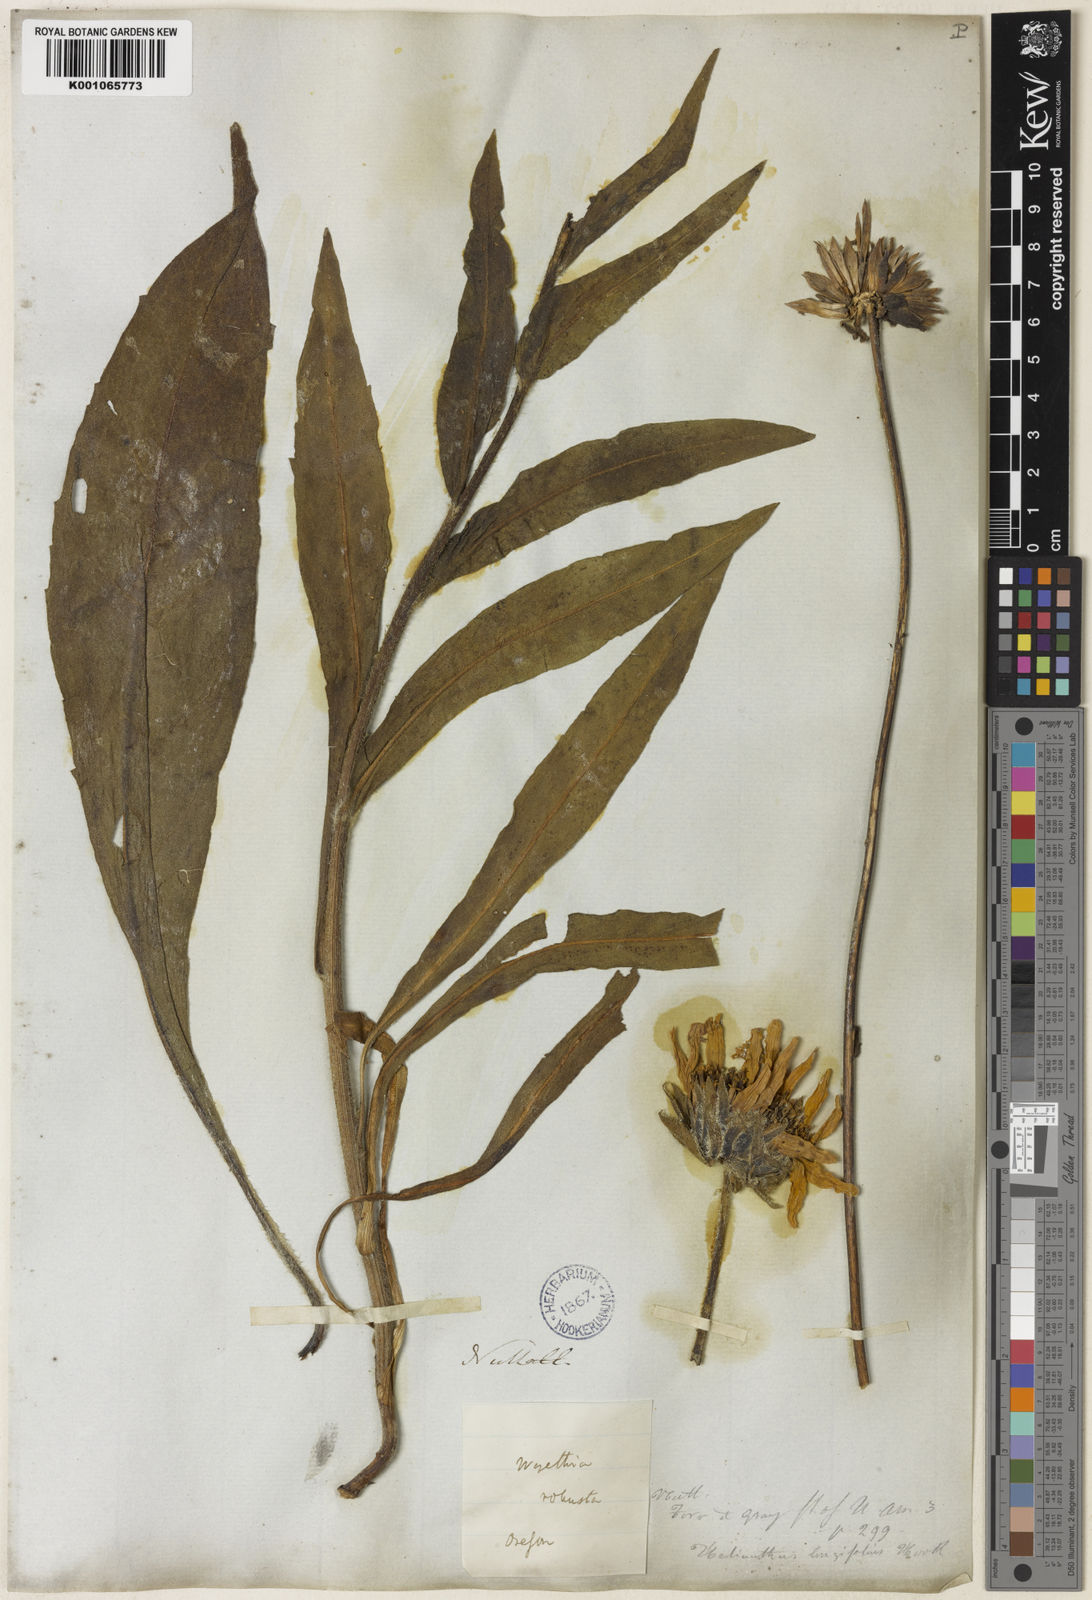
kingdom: Plantae
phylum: Tracheophyta
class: Magnoliopsida
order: Asterales
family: Asteraceae
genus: Wyethia
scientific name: Wyethia angustifolia
